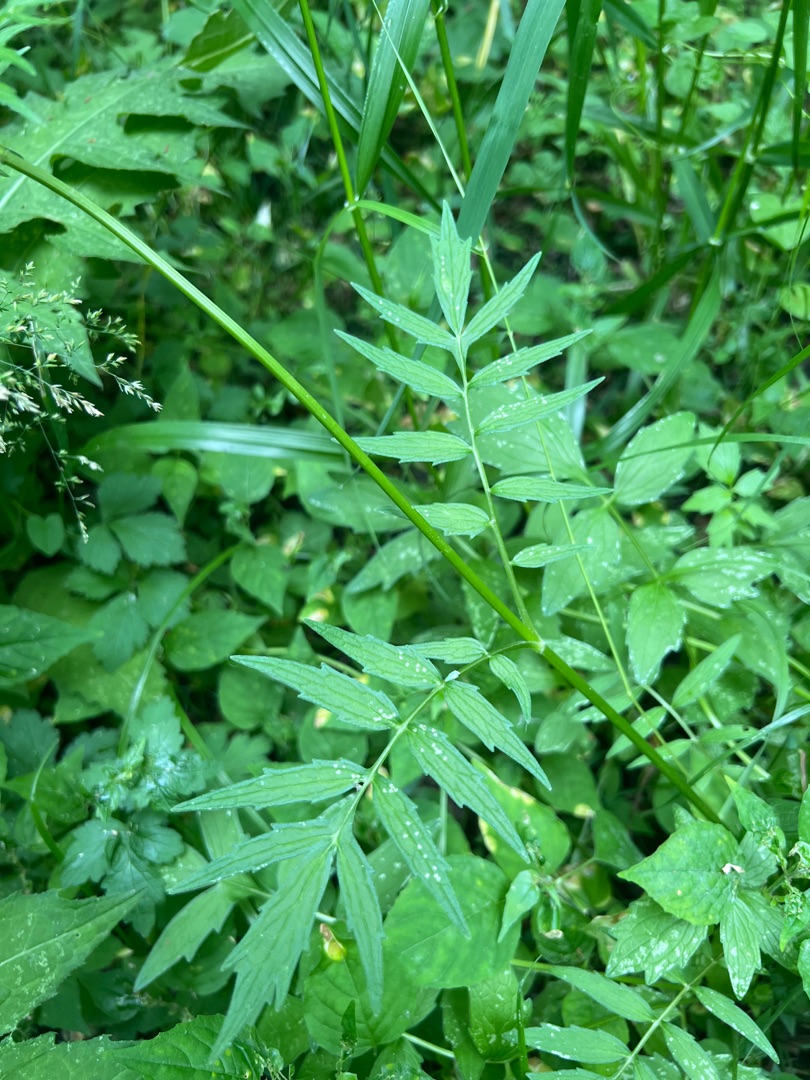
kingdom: Plantae
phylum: Tracheophyta
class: Magnoliopsida
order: Dipsacales
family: Caprifoliaceae
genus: Valeriana
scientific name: Valeriana sambucifolia
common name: Hyldebladet baldrian
